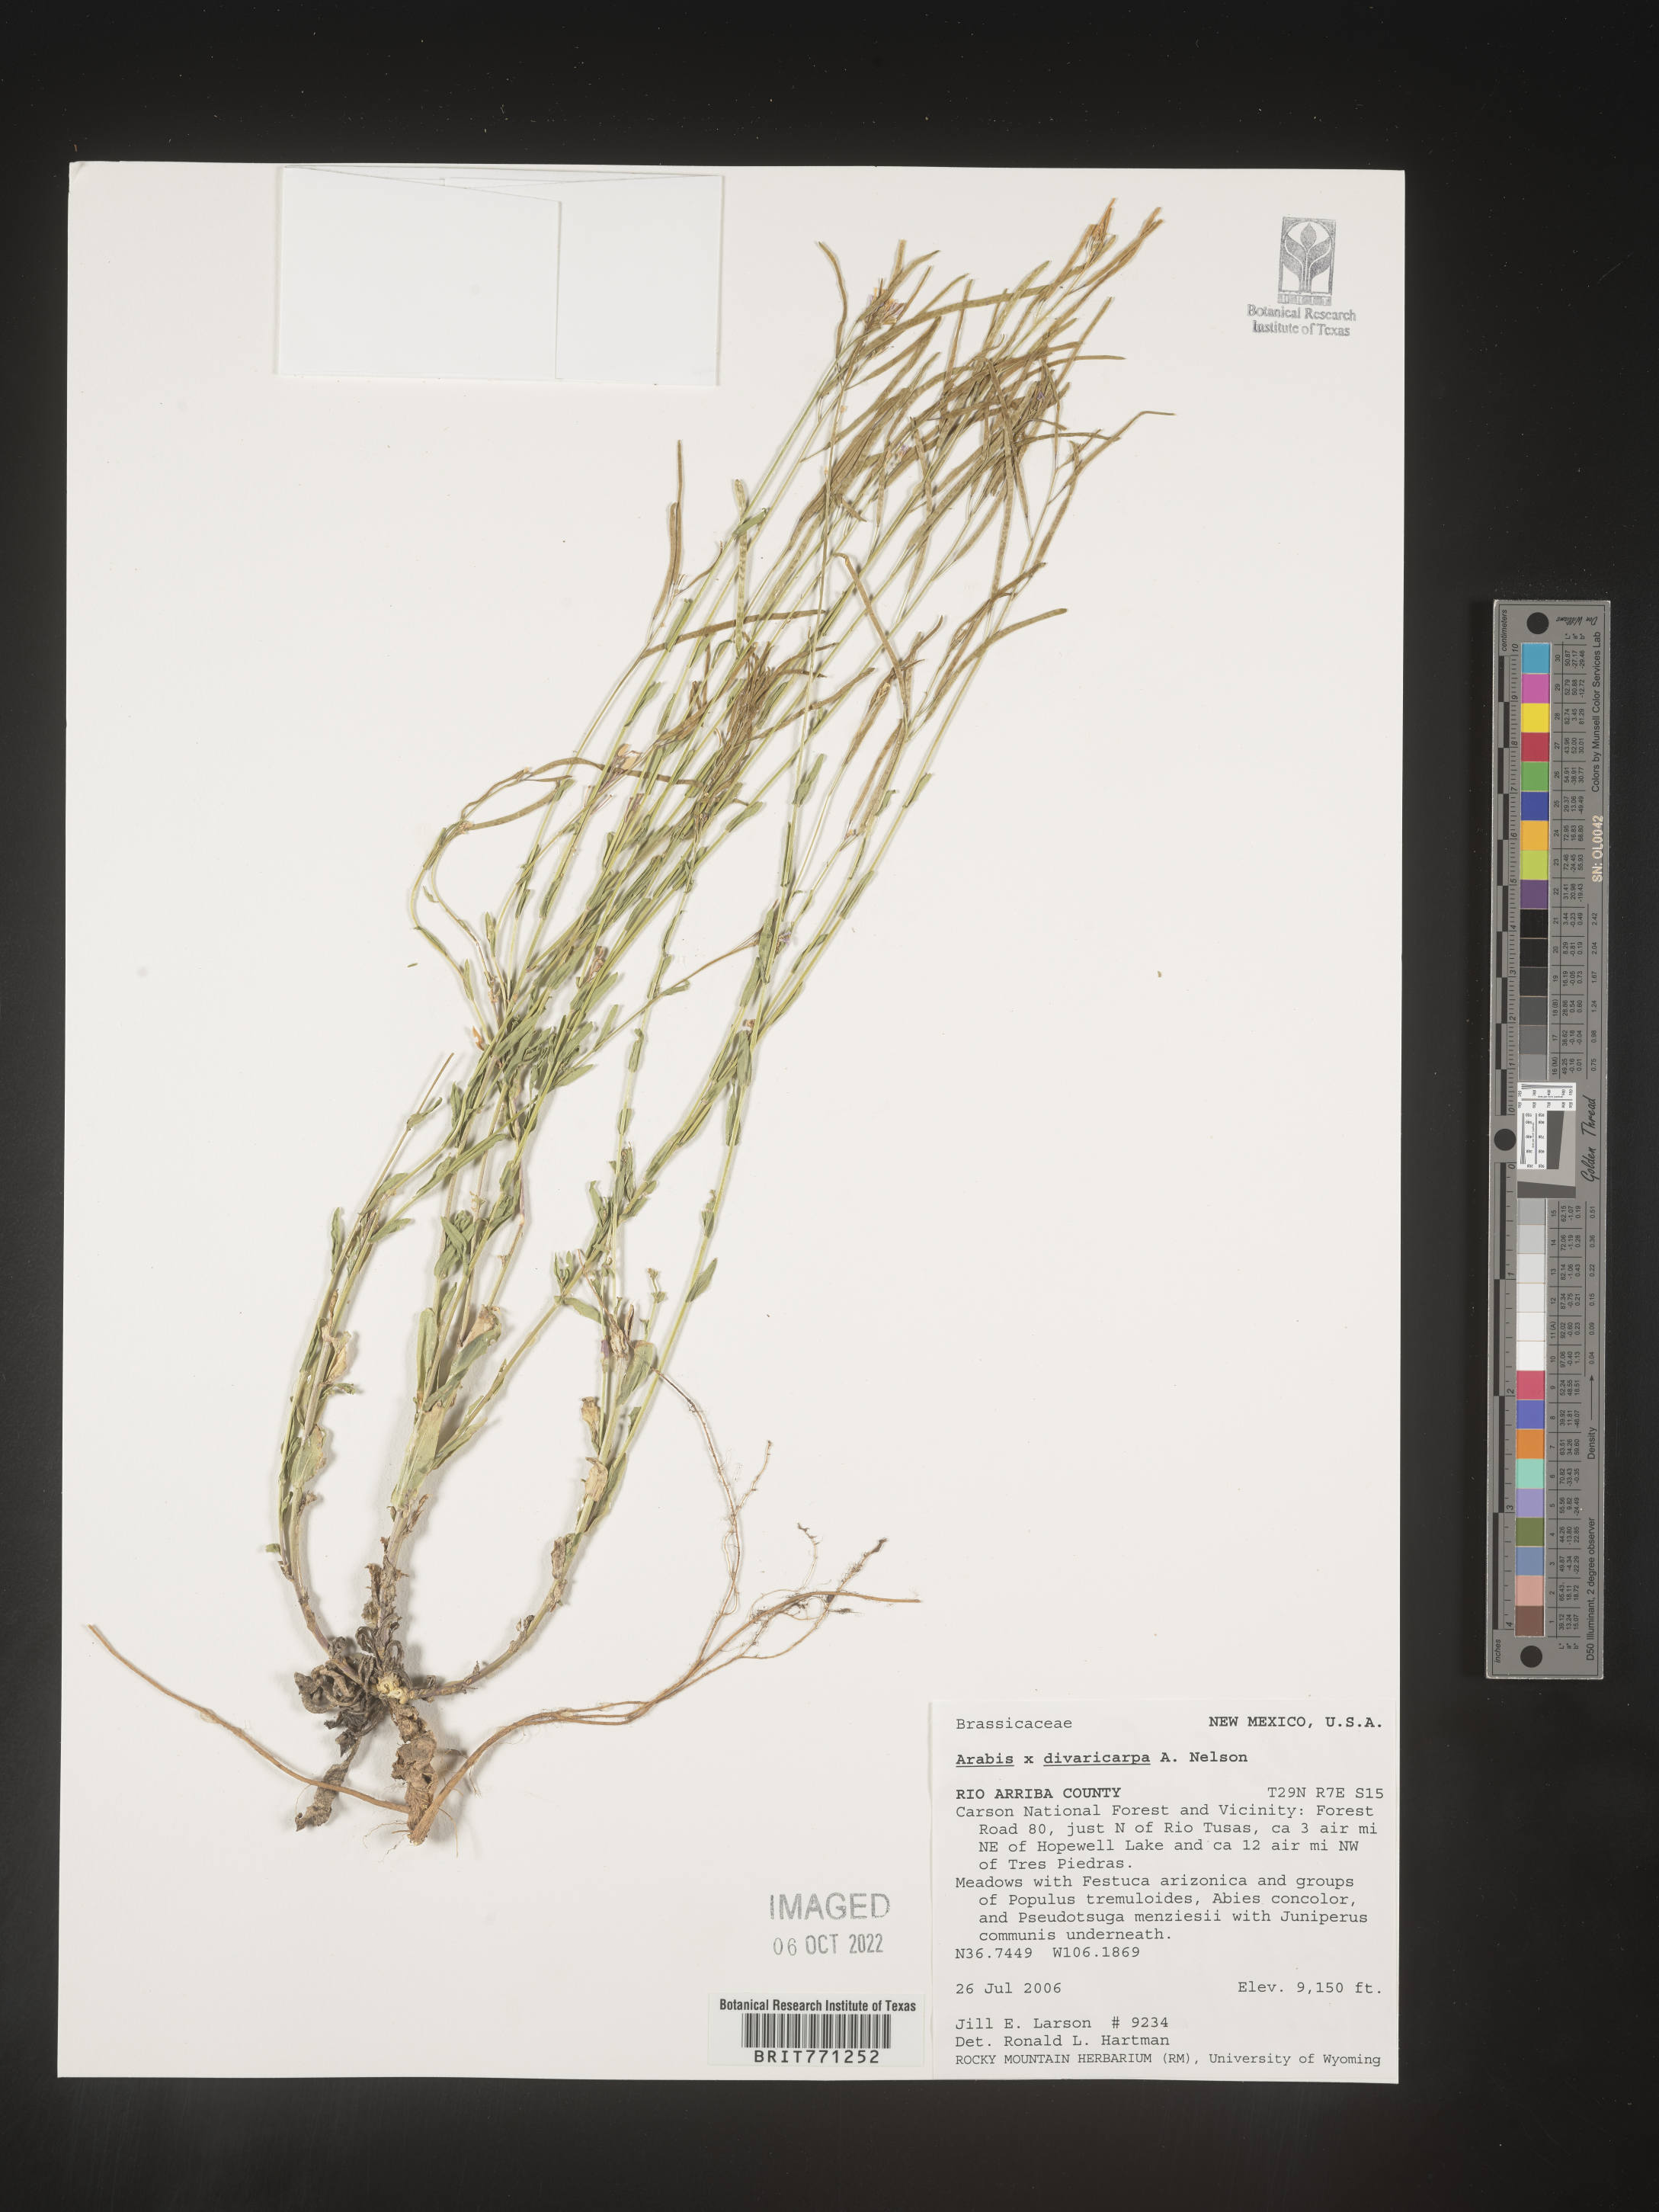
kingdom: Plantae
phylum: Tracheophyta
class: Magnoliopsida
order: Brassicales
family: Brassicaceae
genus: Boechera
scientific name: Boechera divaricarpa
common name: Divaricate rockcress
